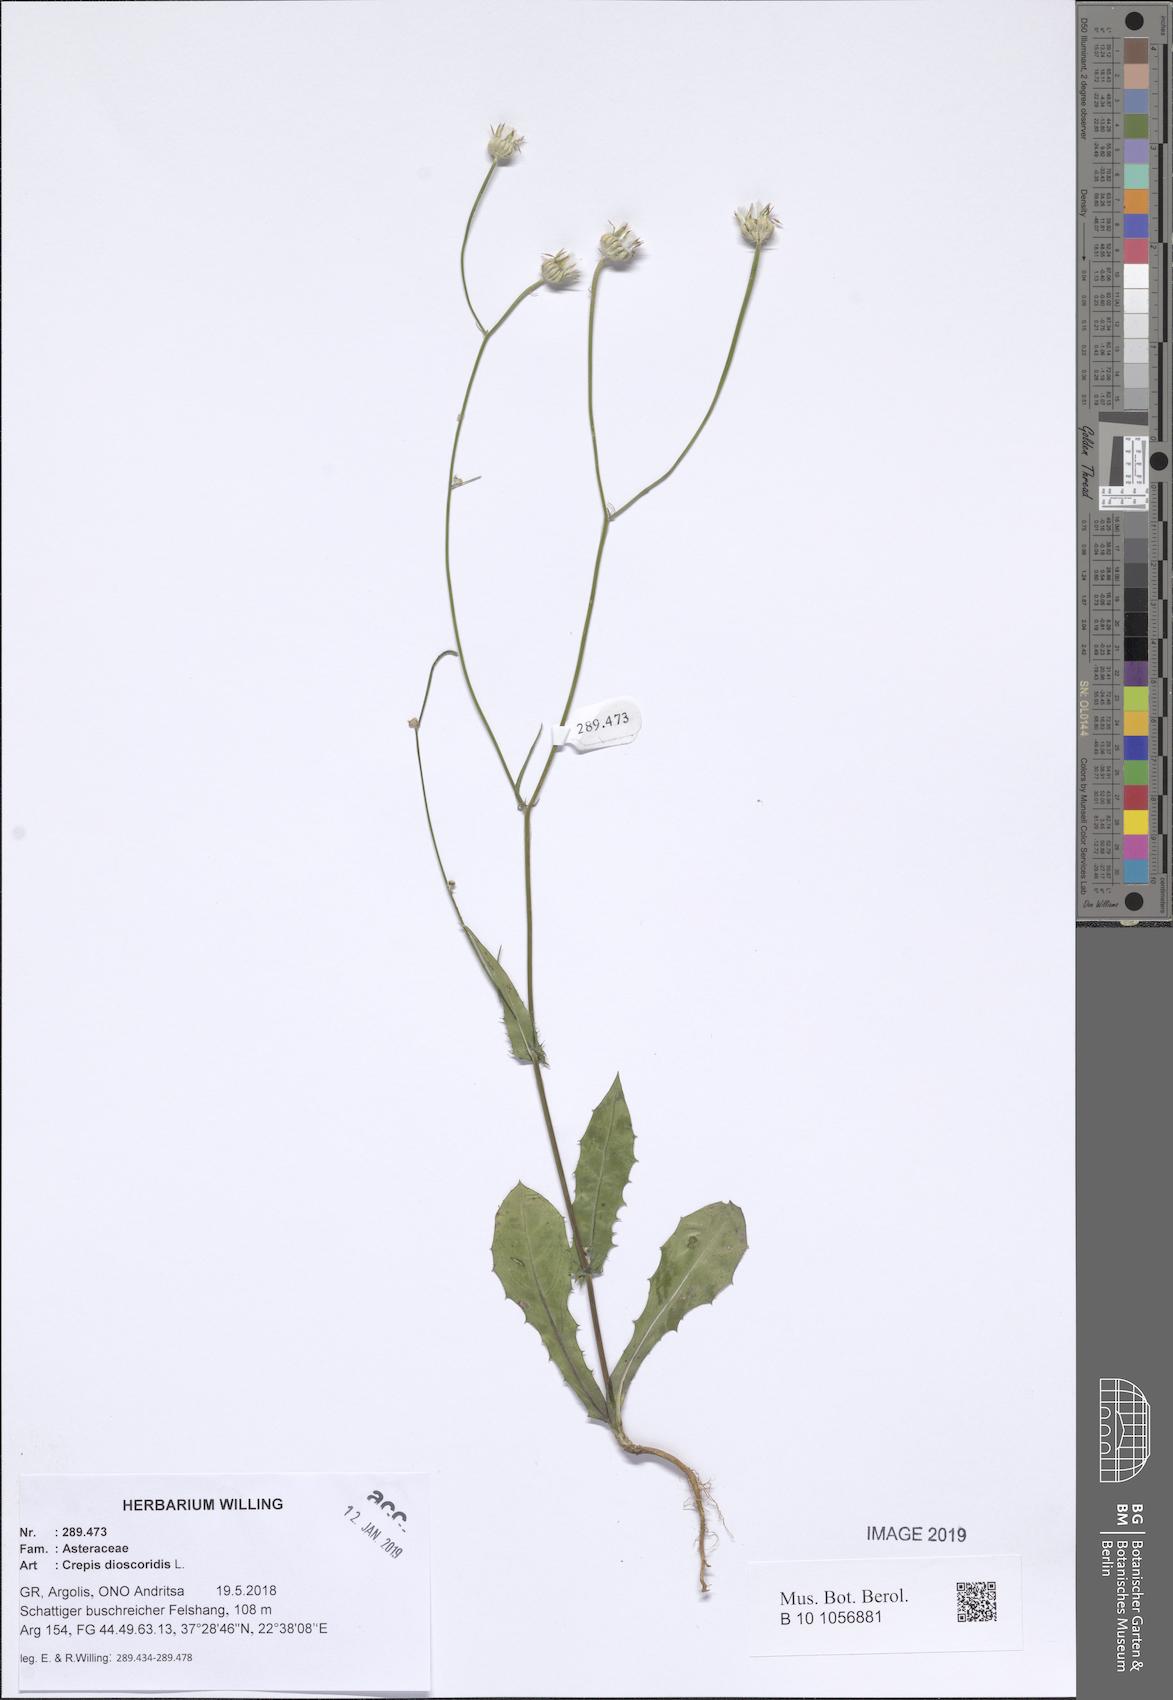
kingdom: Plantae
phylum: Tracheophyta
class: Magnoliopsida
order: Asterales
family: Asteraceae
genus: Crepis
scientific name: Crepis dioscoridis
